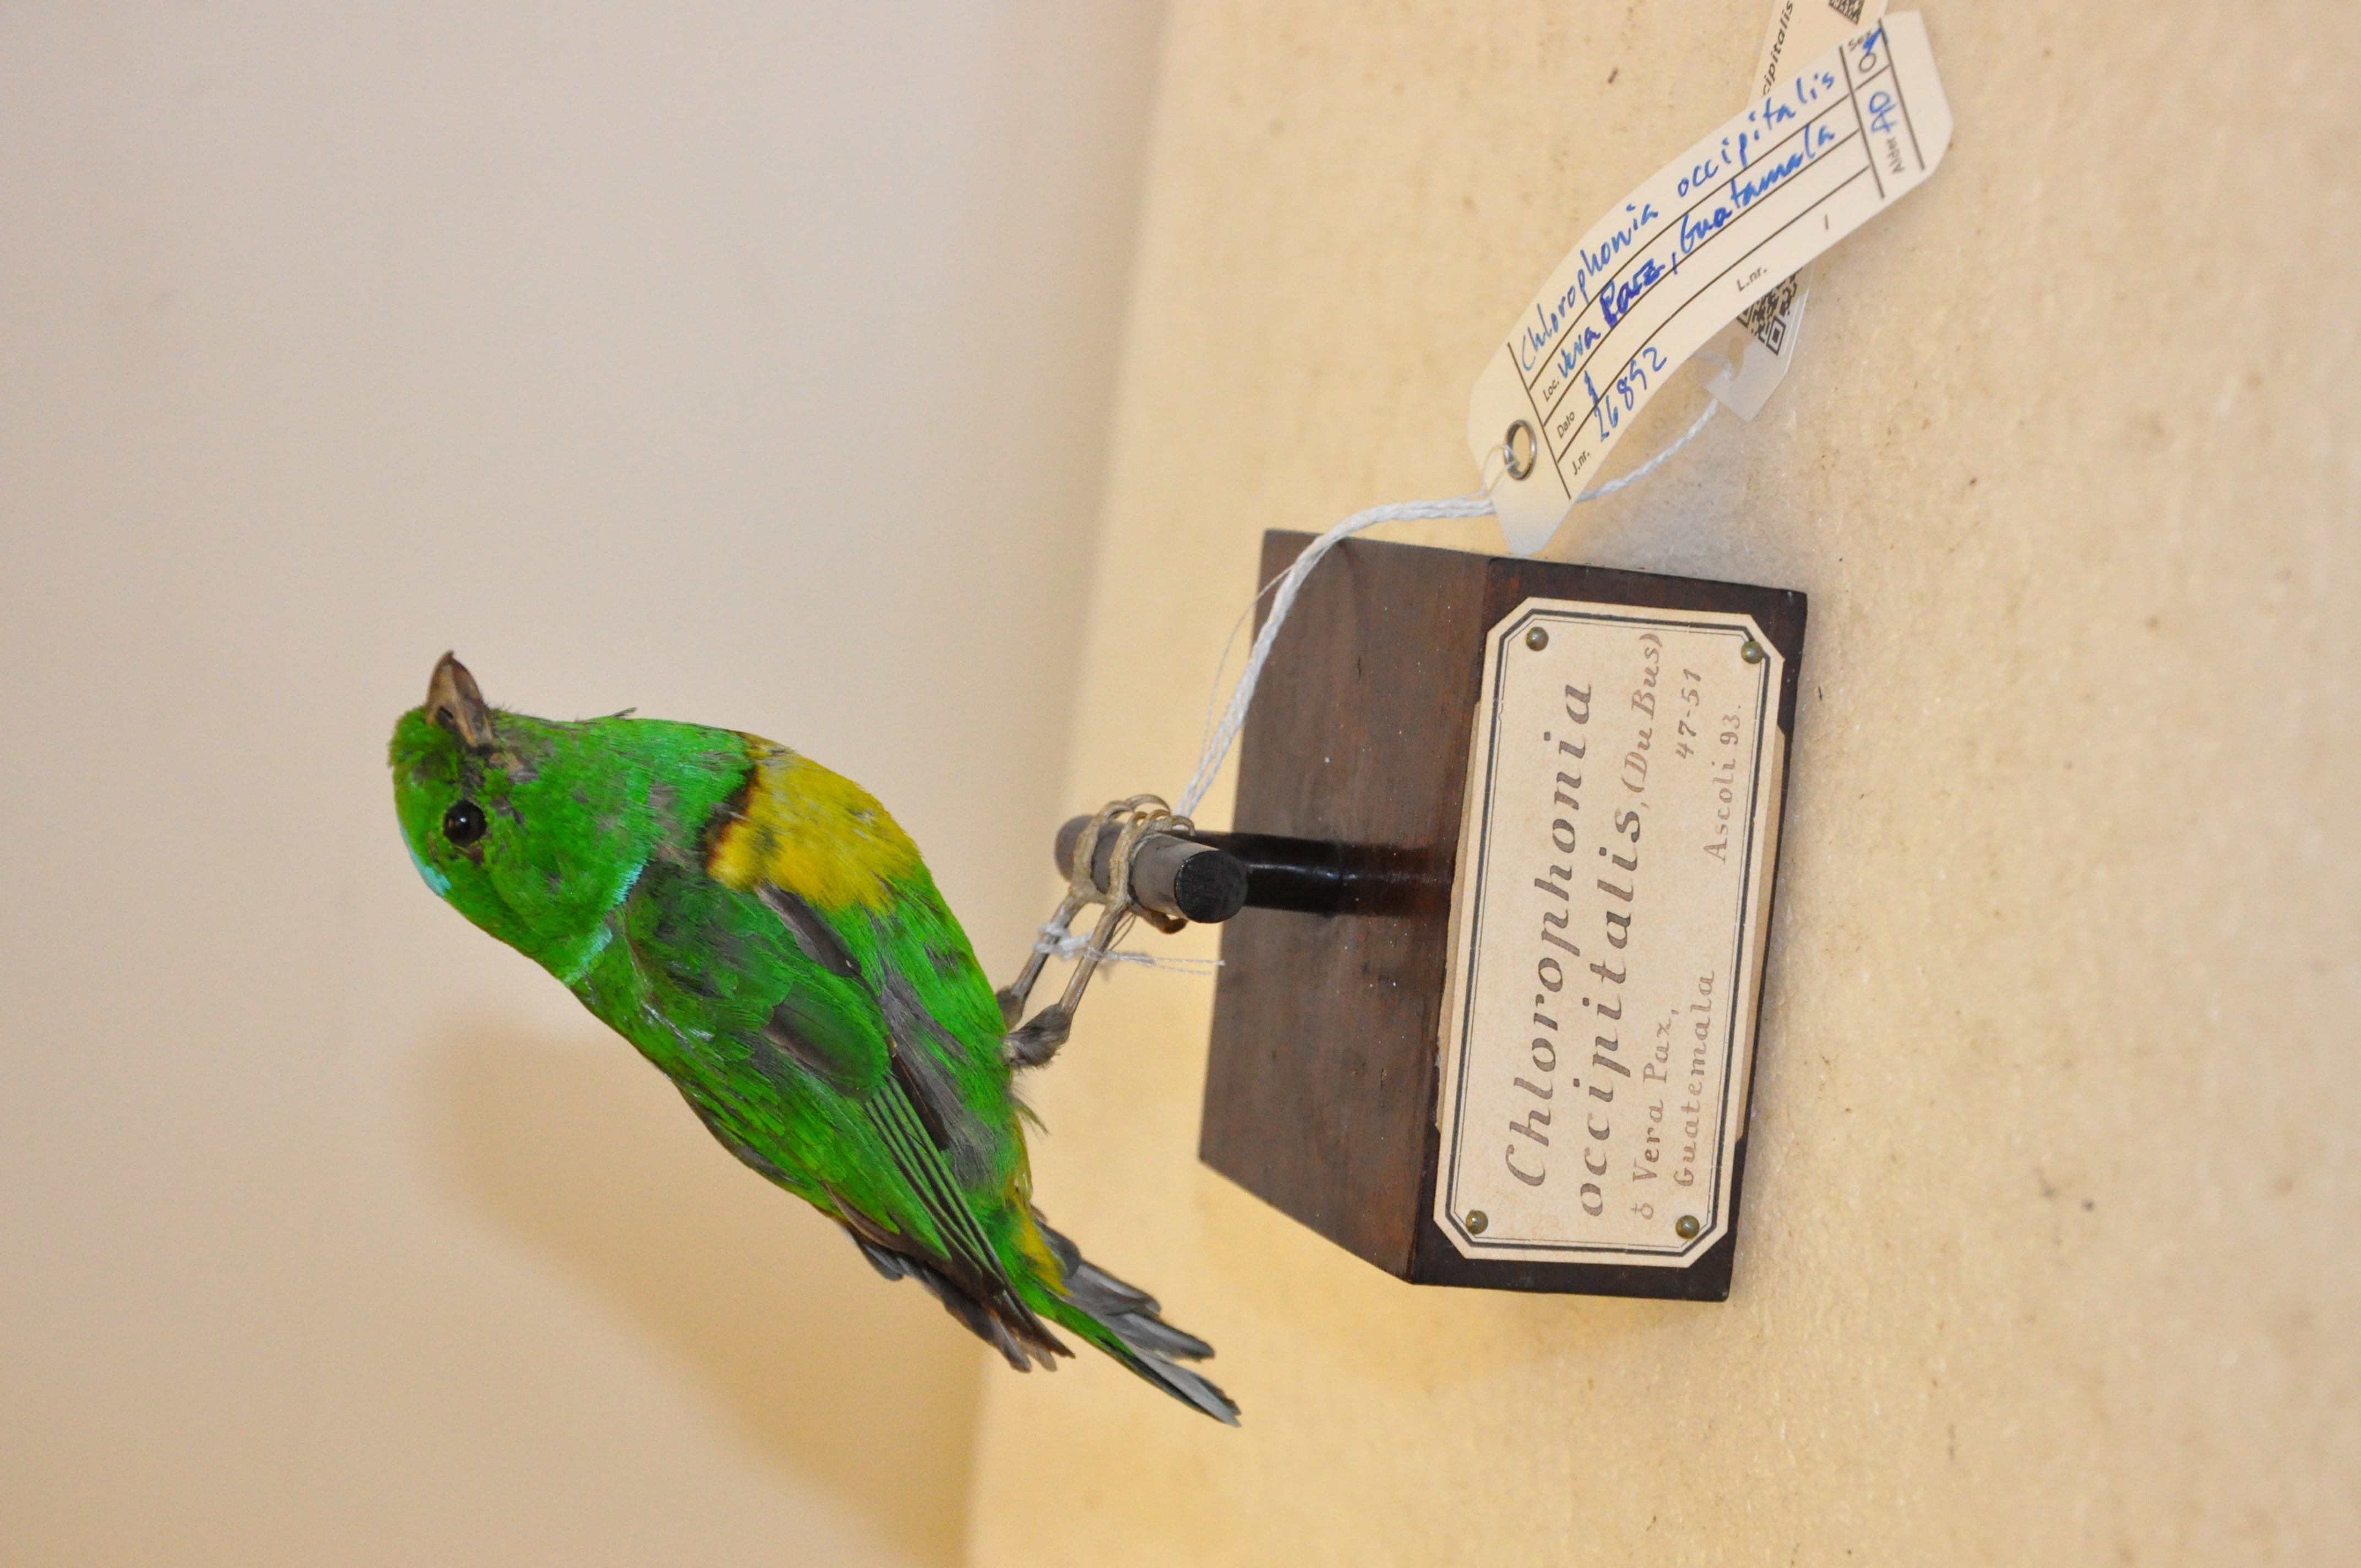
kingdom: Animalia
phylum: Chordata
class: Aves
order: Passeriformes
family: Fringillidae
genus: Chlorophonia
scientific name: Chlorophonia occipitalis
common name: Blue-crowned chlorophonia
